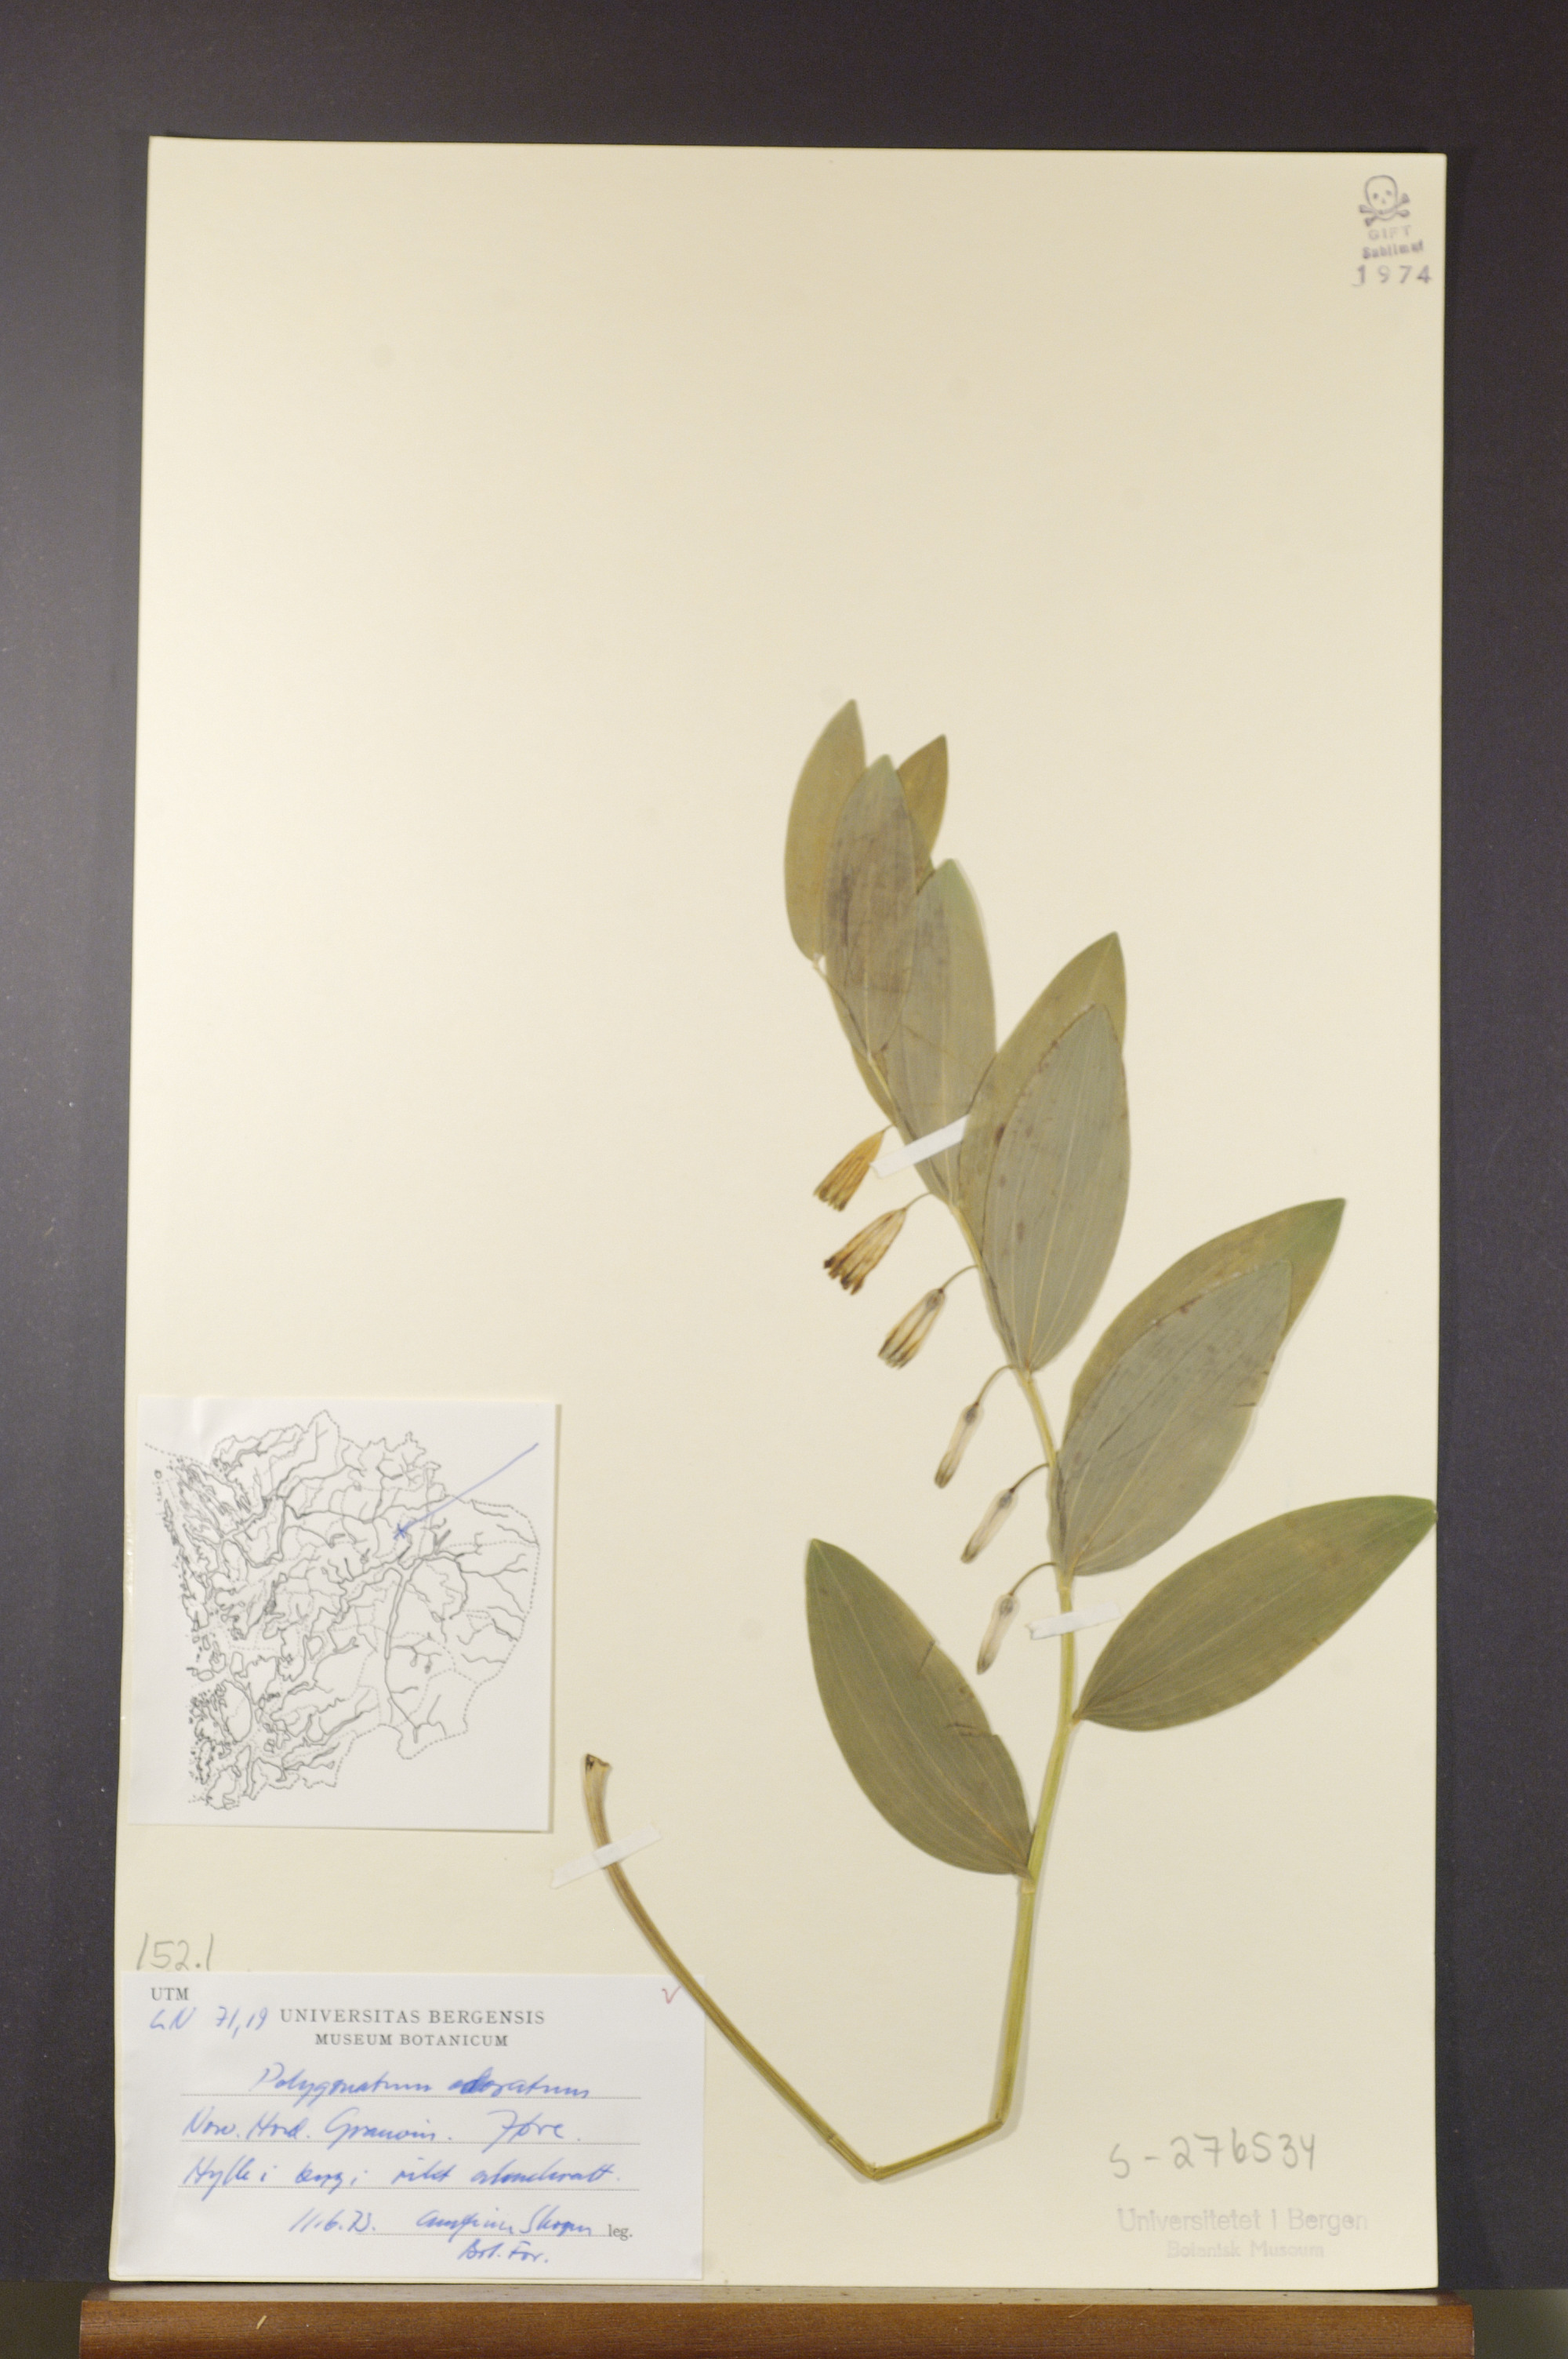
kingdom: Plantae
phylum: Tracheophyta
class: Liliopsida
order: Asparagales
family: Asparagaceae
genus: Polygonatum
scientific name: Polygonatum odoratum
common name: Angular solomon's-seal
